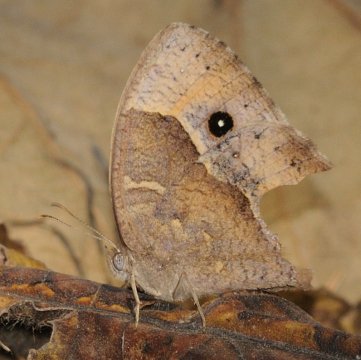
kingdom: Animalia
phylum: Arthropoda
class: Insecta
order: Lepidoptera
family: Nymphalidae
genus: Bicyclus
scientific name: Bicyclus cottrelli
